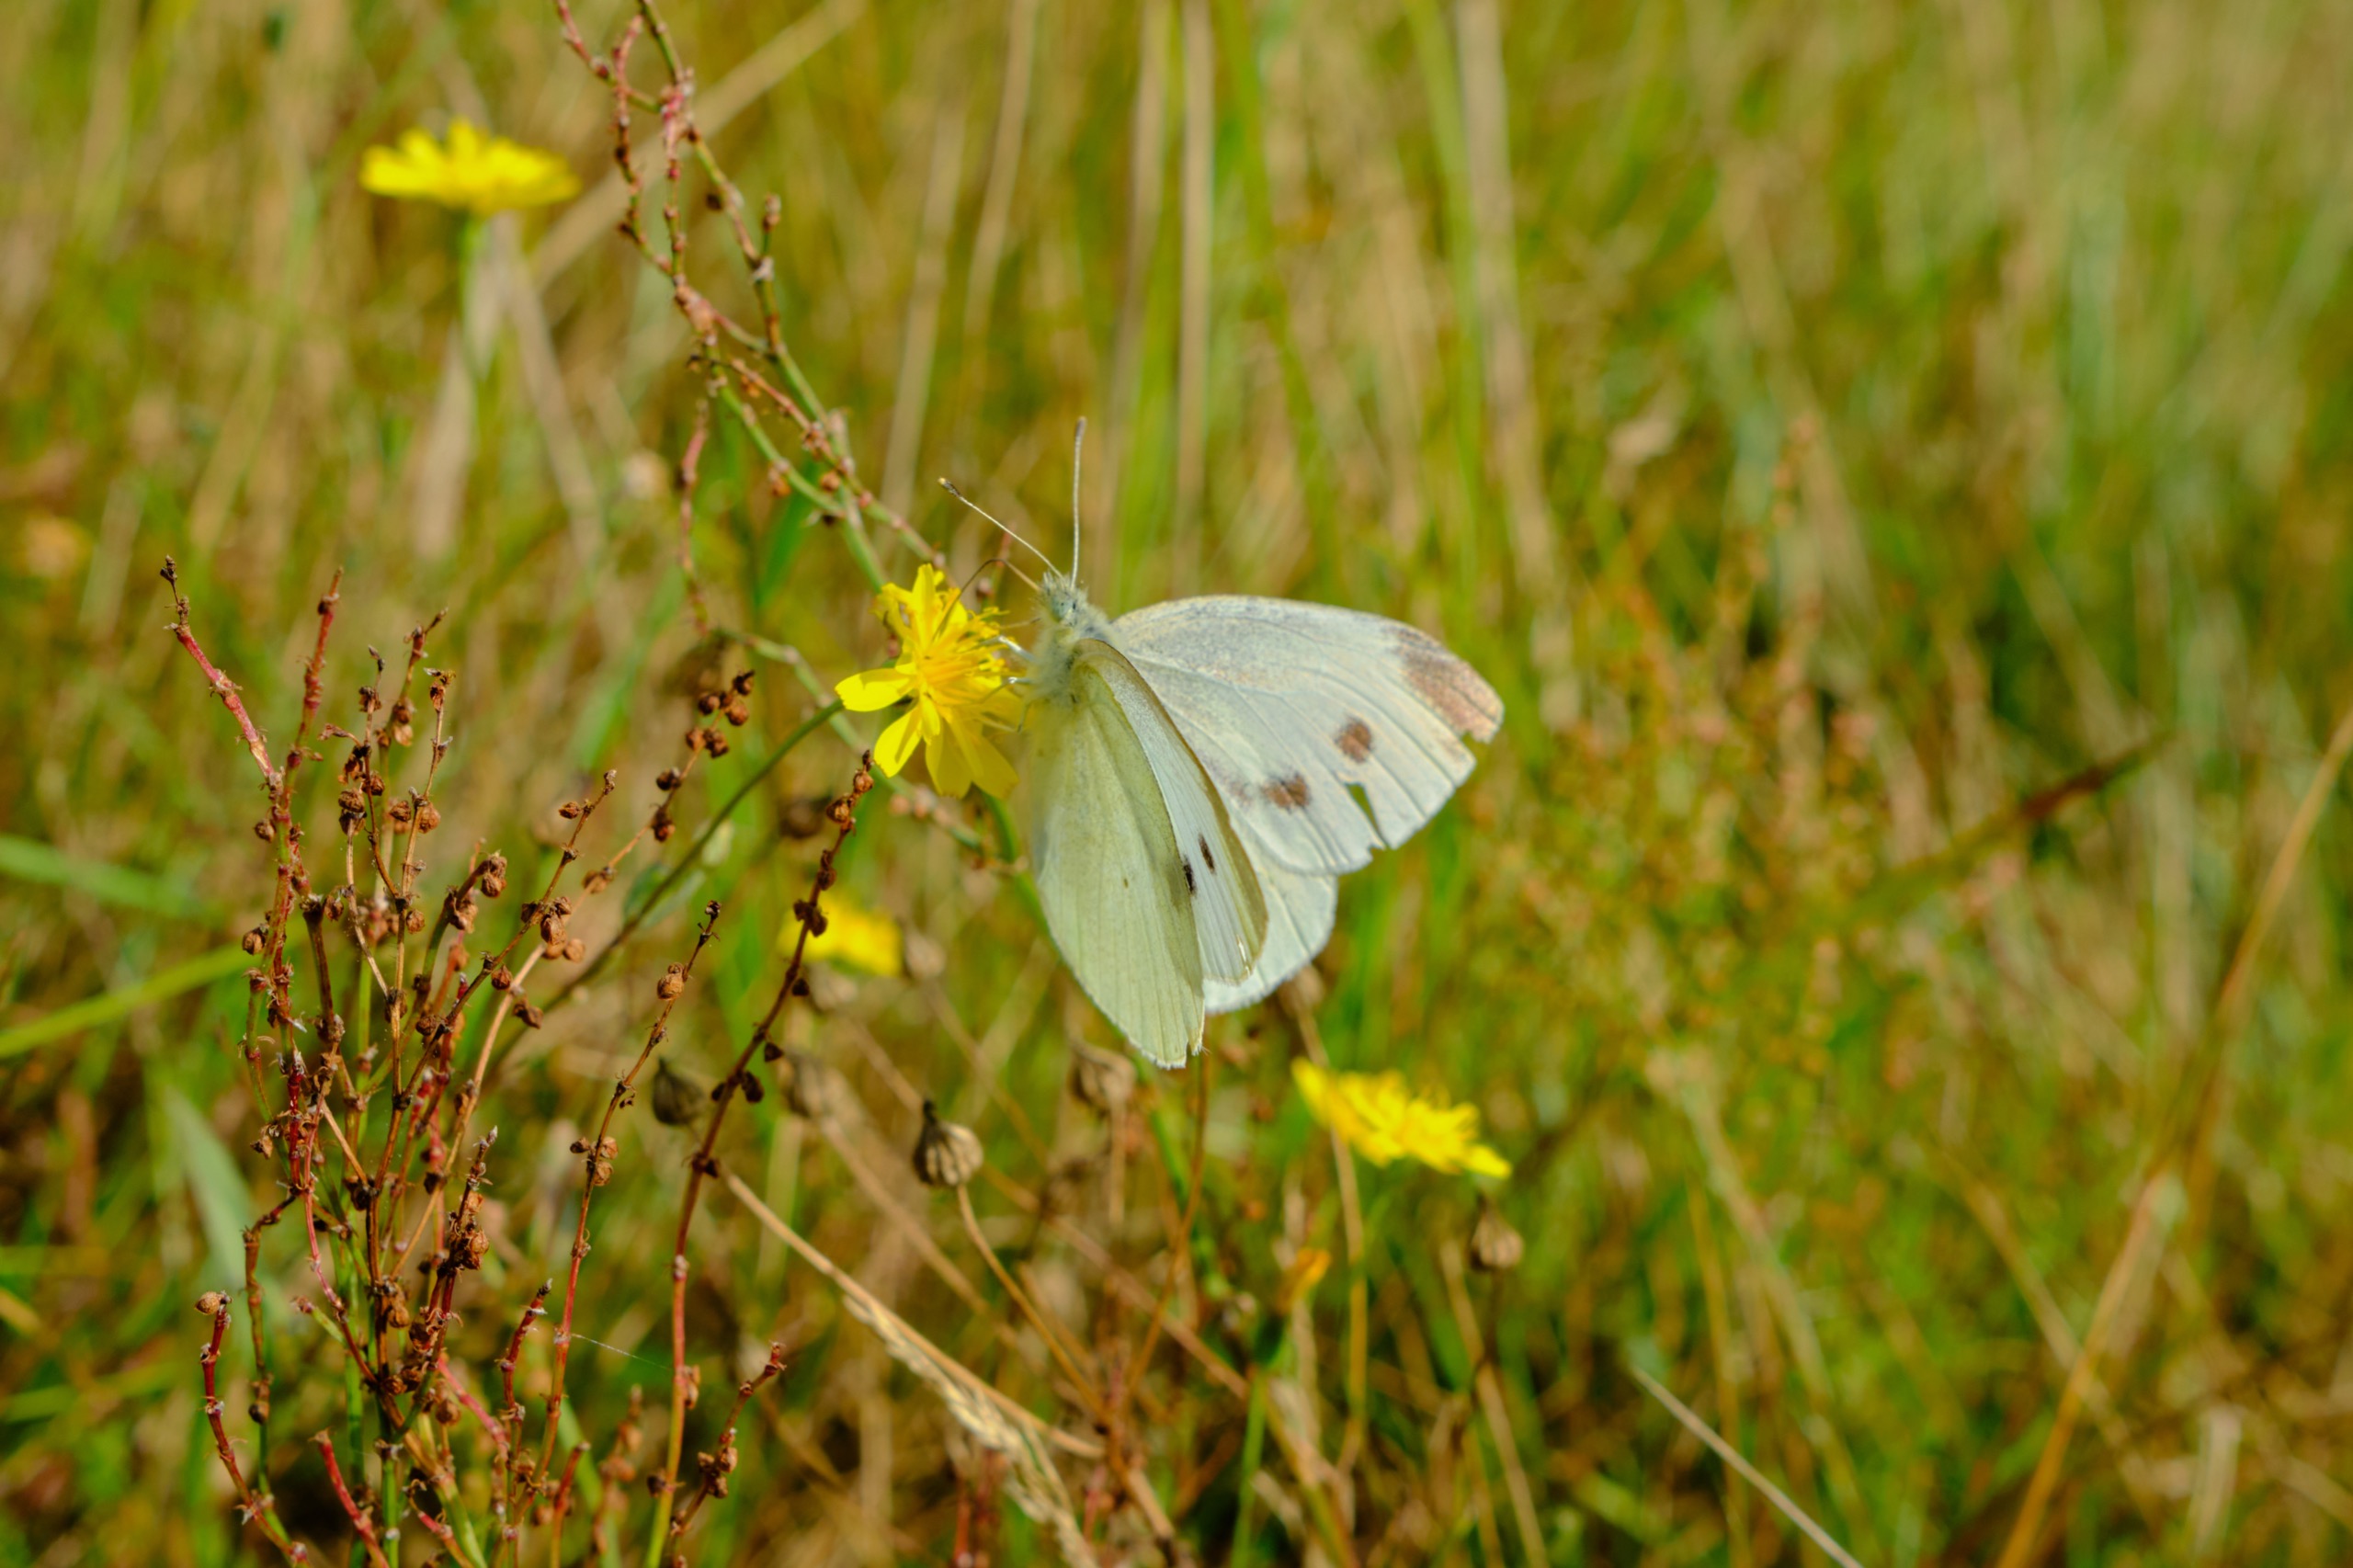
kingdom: Animalia
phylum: Arthropoda
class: Insecta
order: Lepidoptera
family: Pieridae
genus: Pieris
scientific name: Pieris rapae
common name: Lille kålsommerfugl
